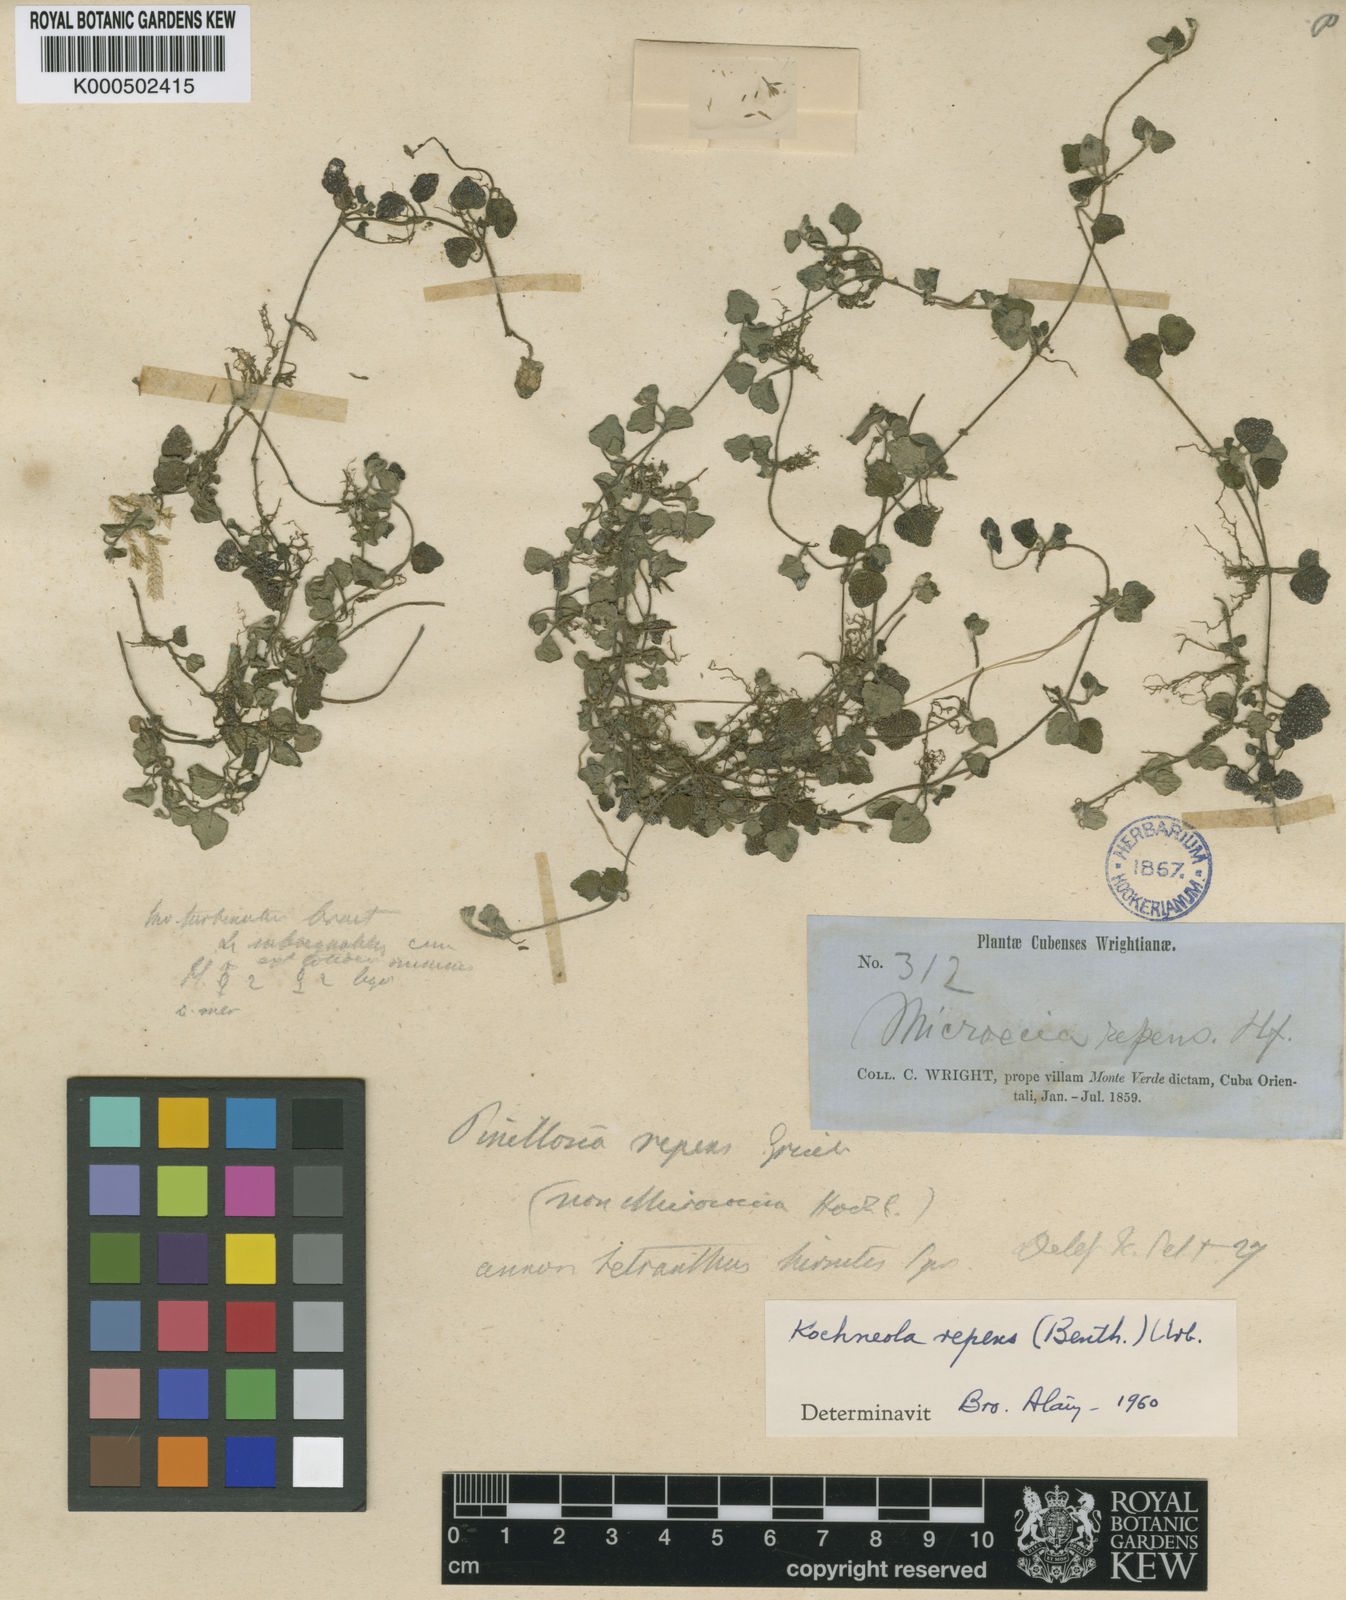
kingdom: Plantae
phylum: Tracheophyta
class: Magnoliopsida
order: Asterales
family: Asteraceae
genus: Koehneola
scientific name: Koehneola repens
